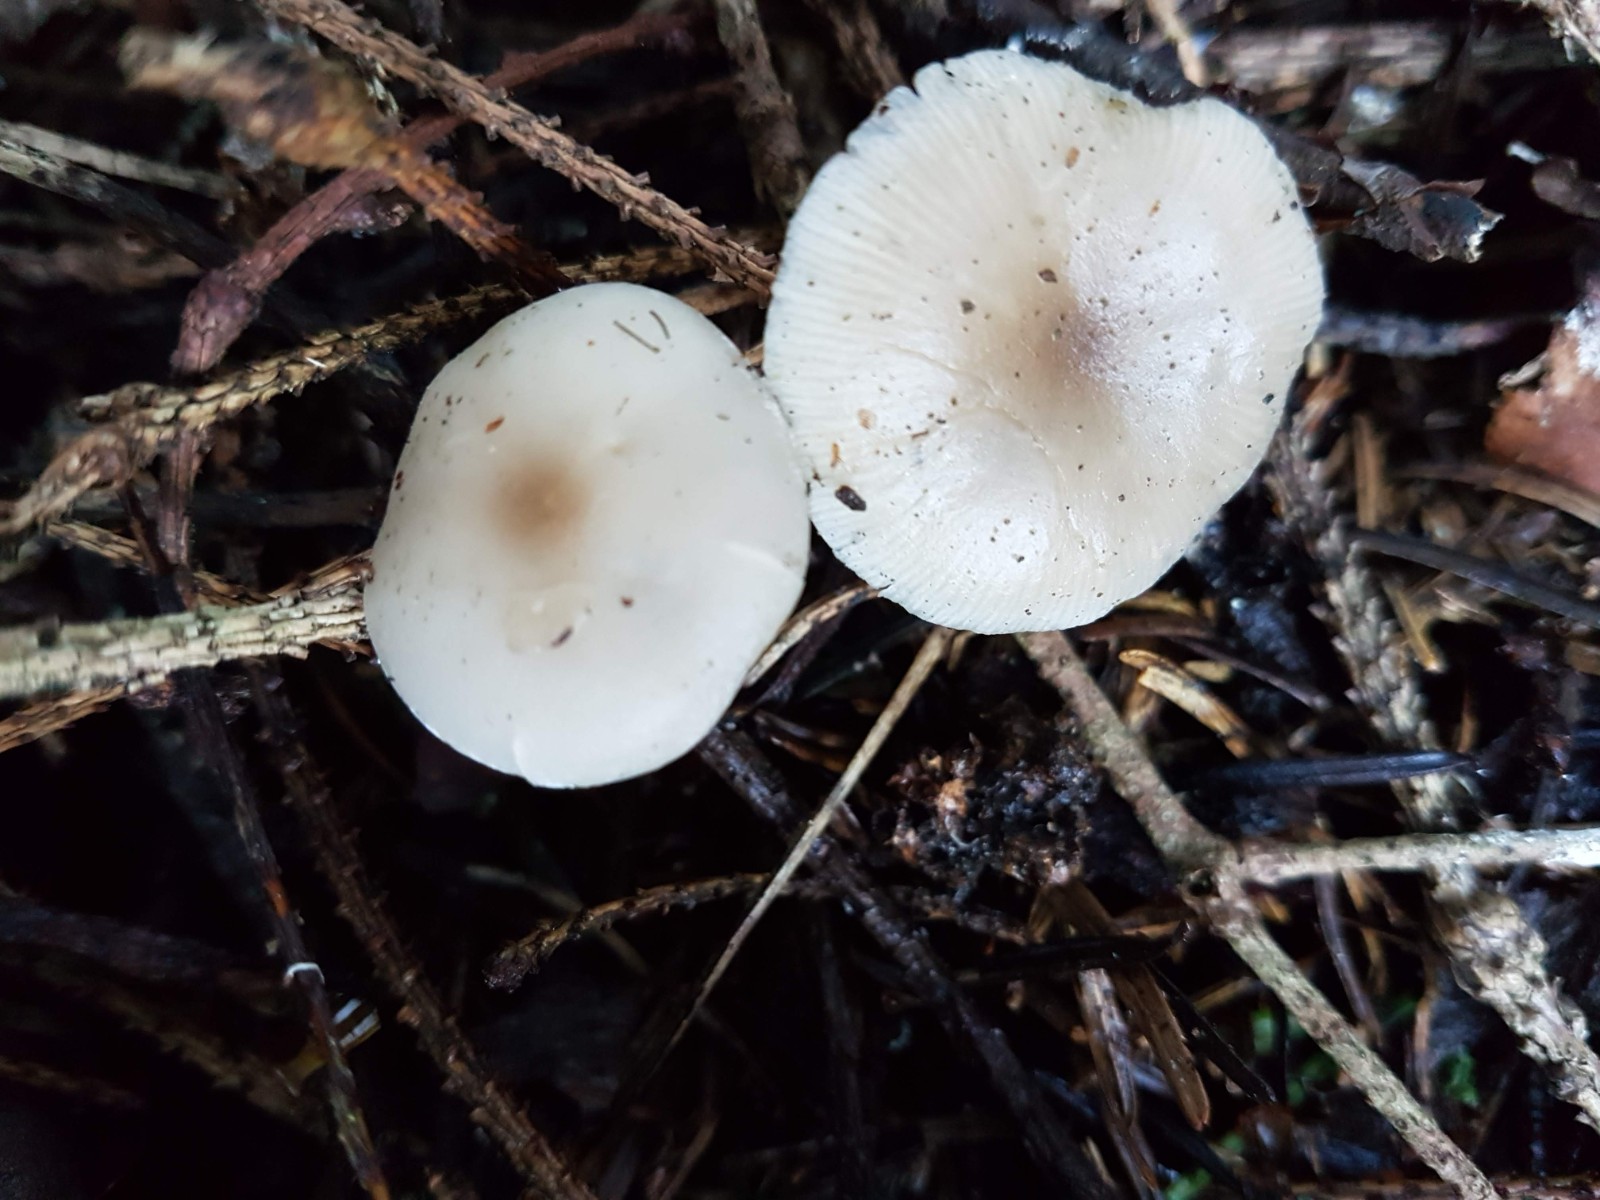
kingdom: Fungi
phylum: Basidiomycota
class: Agaricomycetes
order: Agaricales
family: Tricholomataceae
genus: Clitocybe
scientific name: Clitocybe
